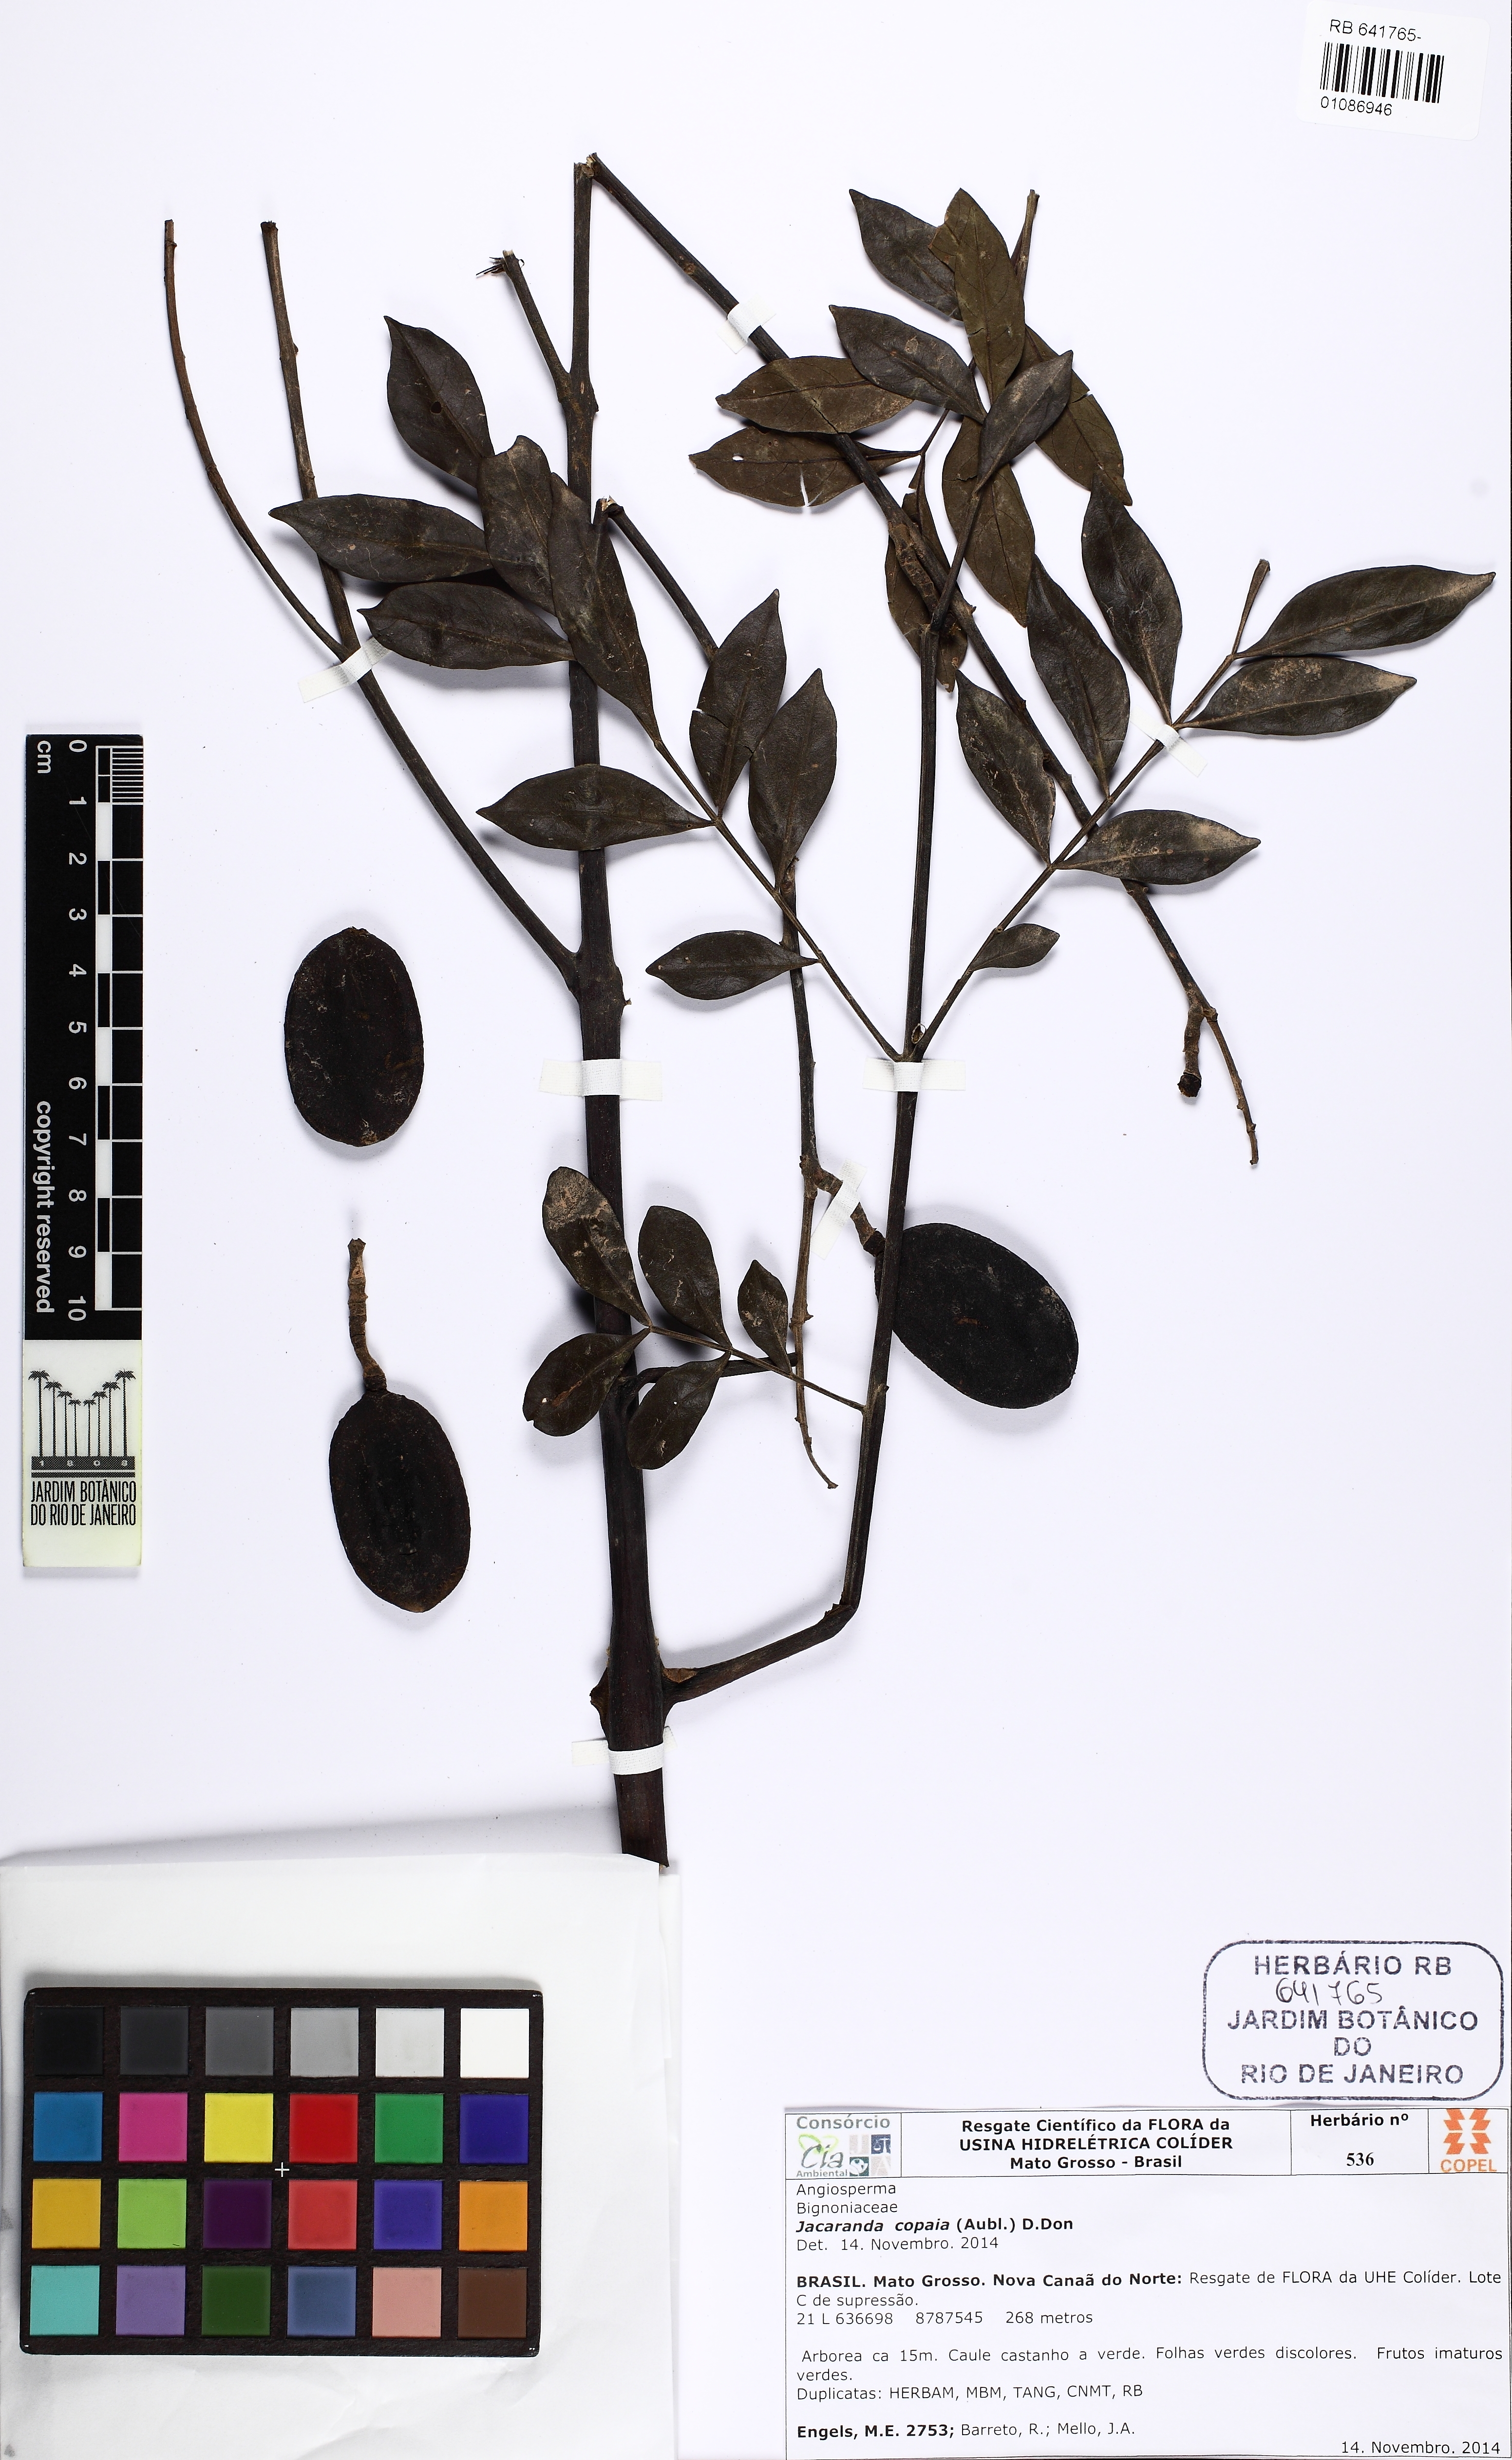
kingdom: Plantae
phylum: Tracheophyta
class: Magnoliopsida
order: Lamiales
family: Bignoniaceae
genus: Jacaranda
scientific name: Jacaranda copaia
